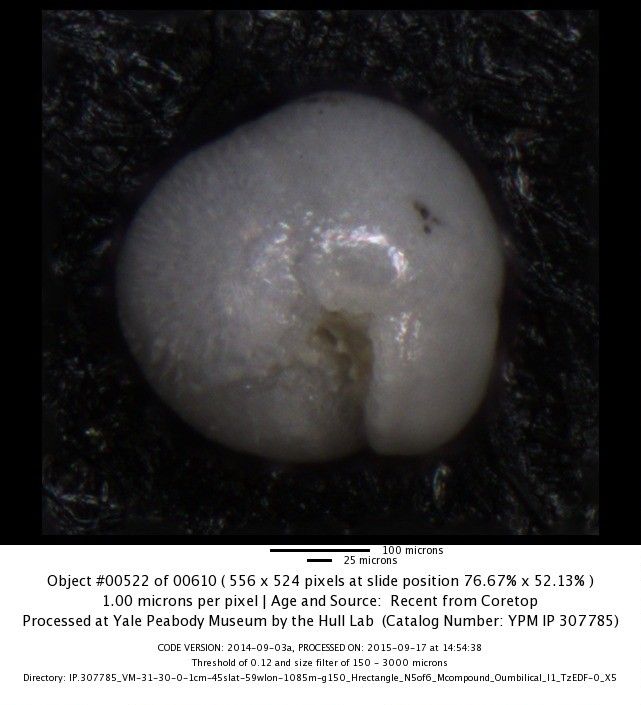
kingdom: Chromista
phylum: Foraminifera
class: Globothalamea
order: Rotaliida
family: Globorotaliidae
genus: Globoconella
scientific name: Globoconella inflata
